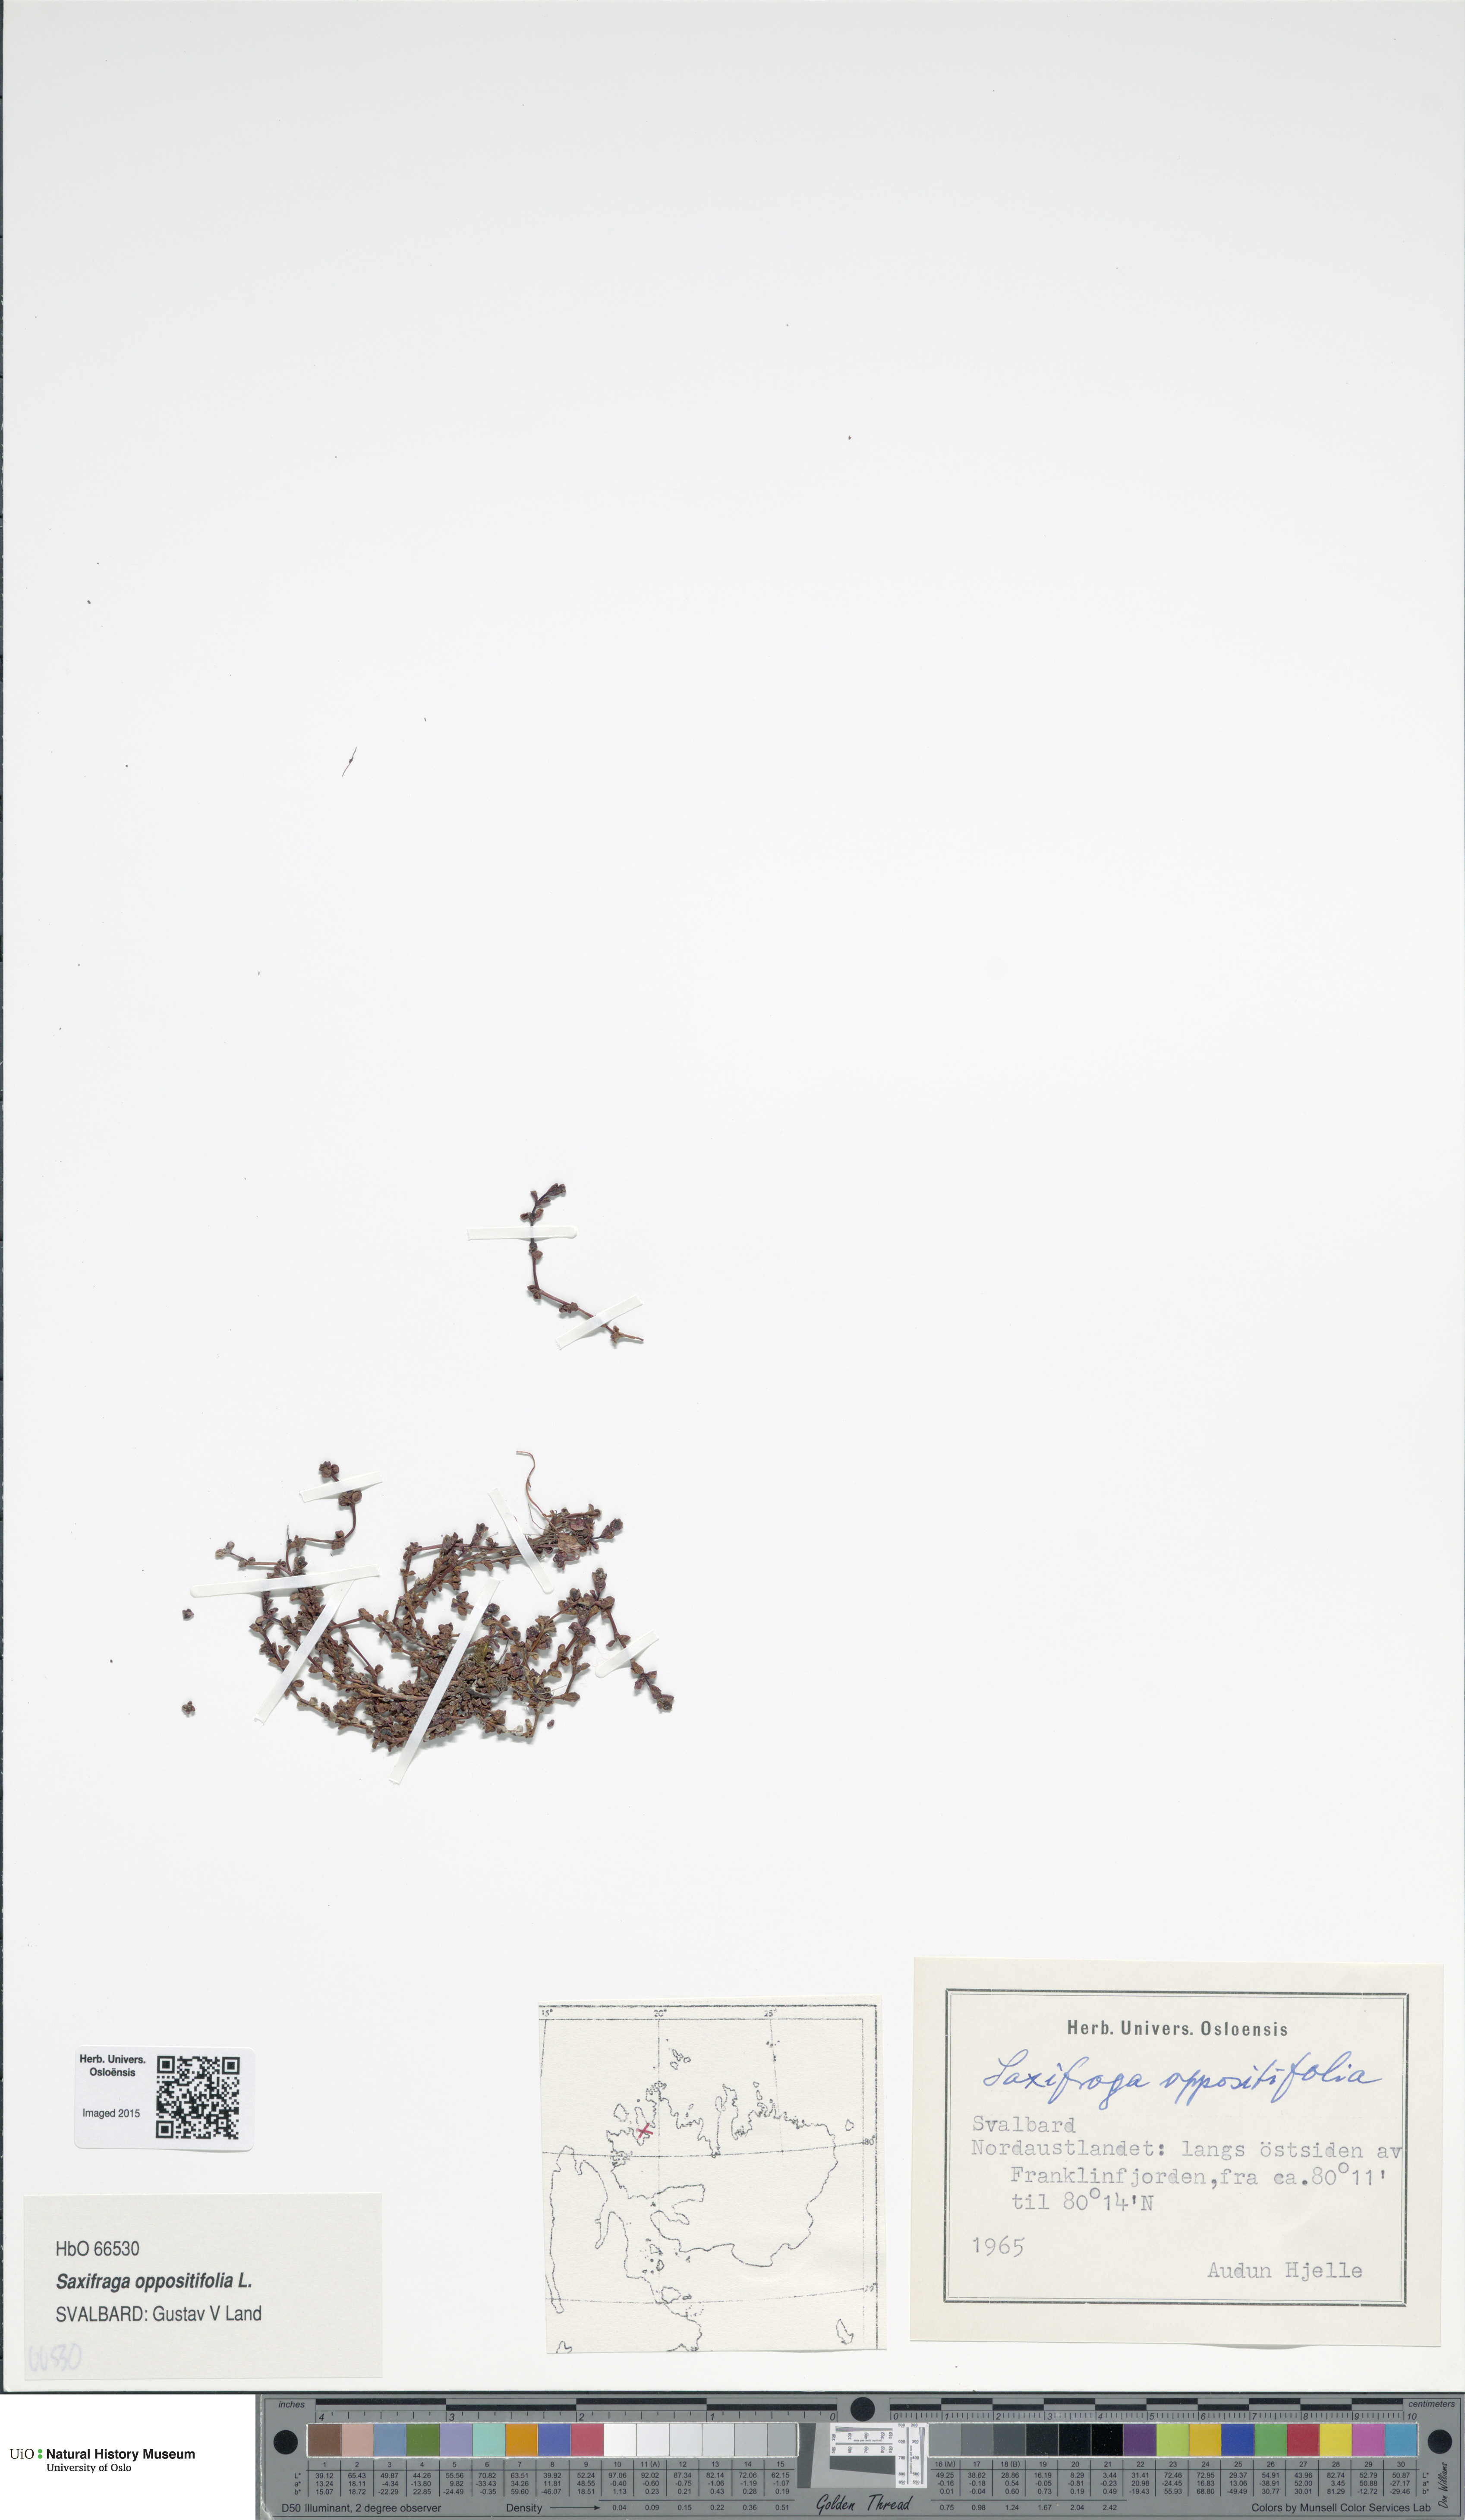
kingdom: Plantae
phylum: Tracheophyta
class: Magnoliopsida
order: Saxifragales
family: Saxifragaceae
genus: Saxifraga
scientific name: Saxifraga oppositifolia
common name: Purple saxifrage
